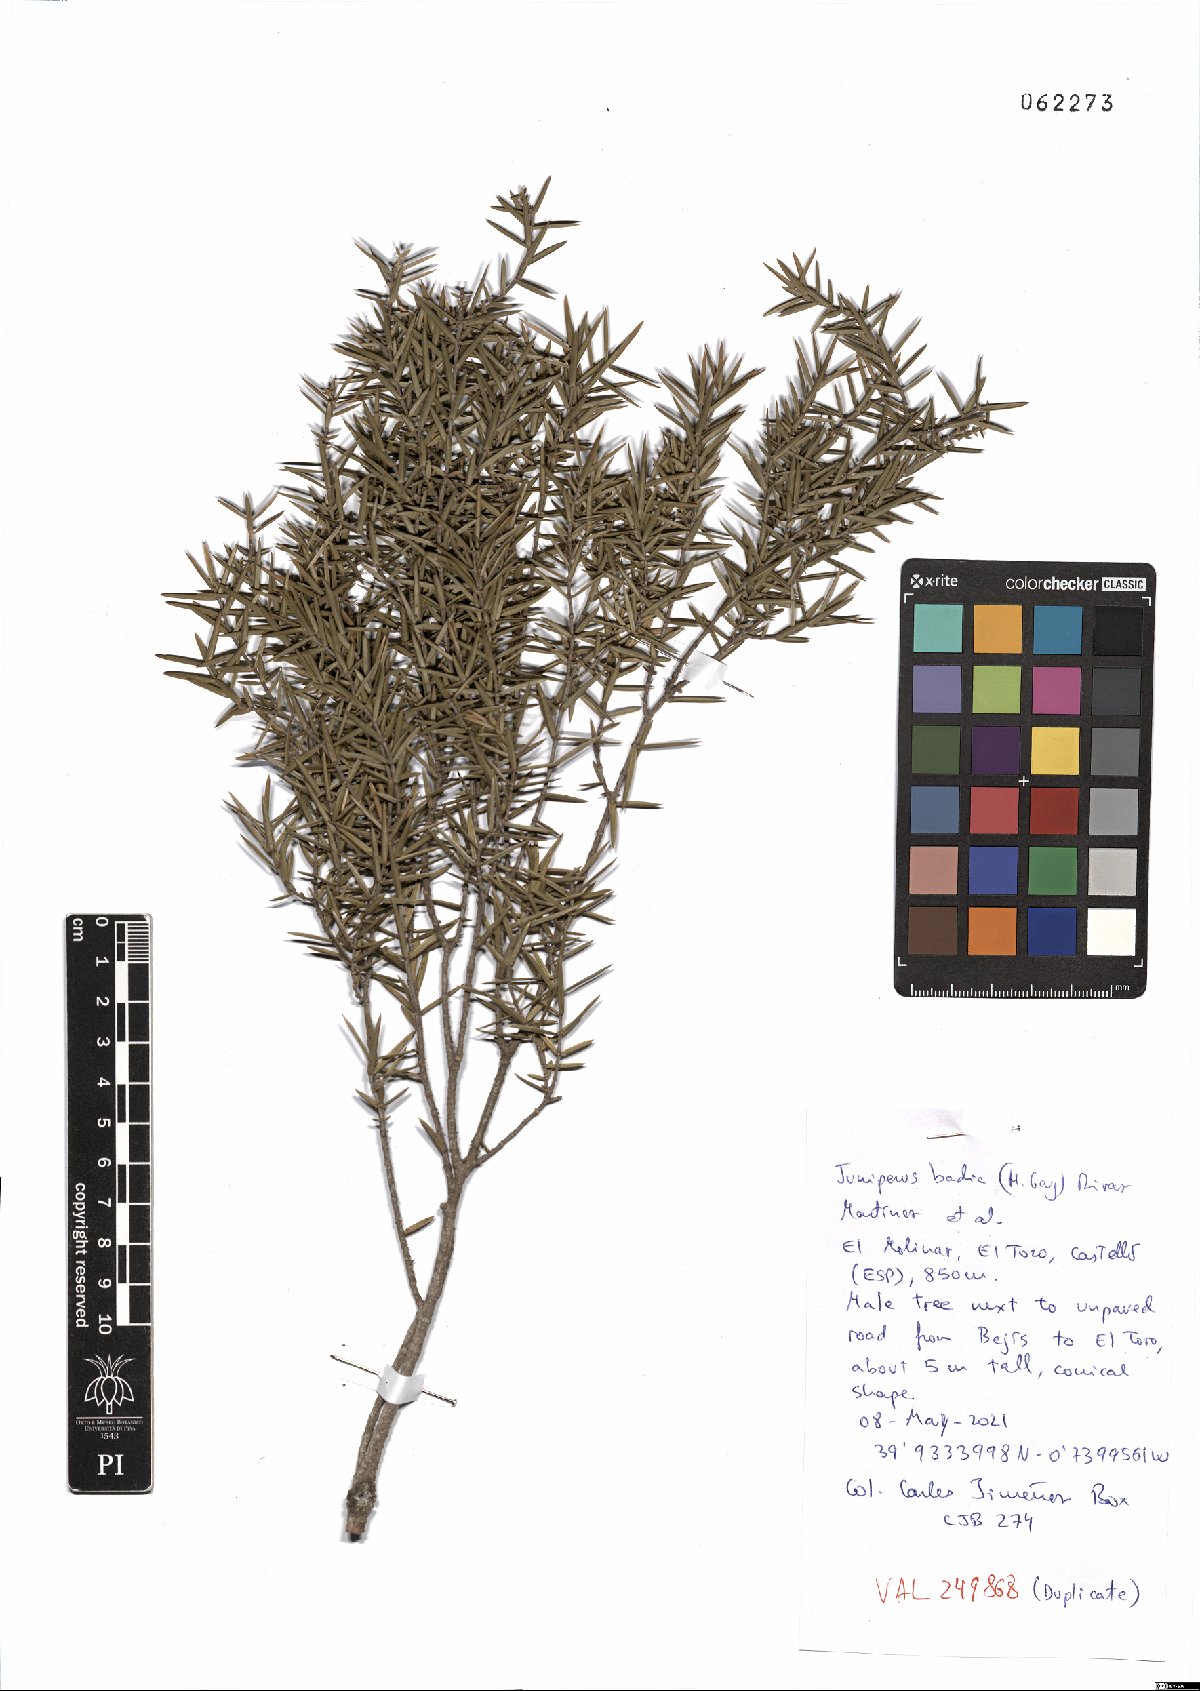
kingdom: Plantae
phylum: Tracheophyta
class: Pinopsida
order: Pinales
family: Cupressaceae
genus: Juniperus
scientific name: Juniperus oxycedrus
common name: Prickly juniper
